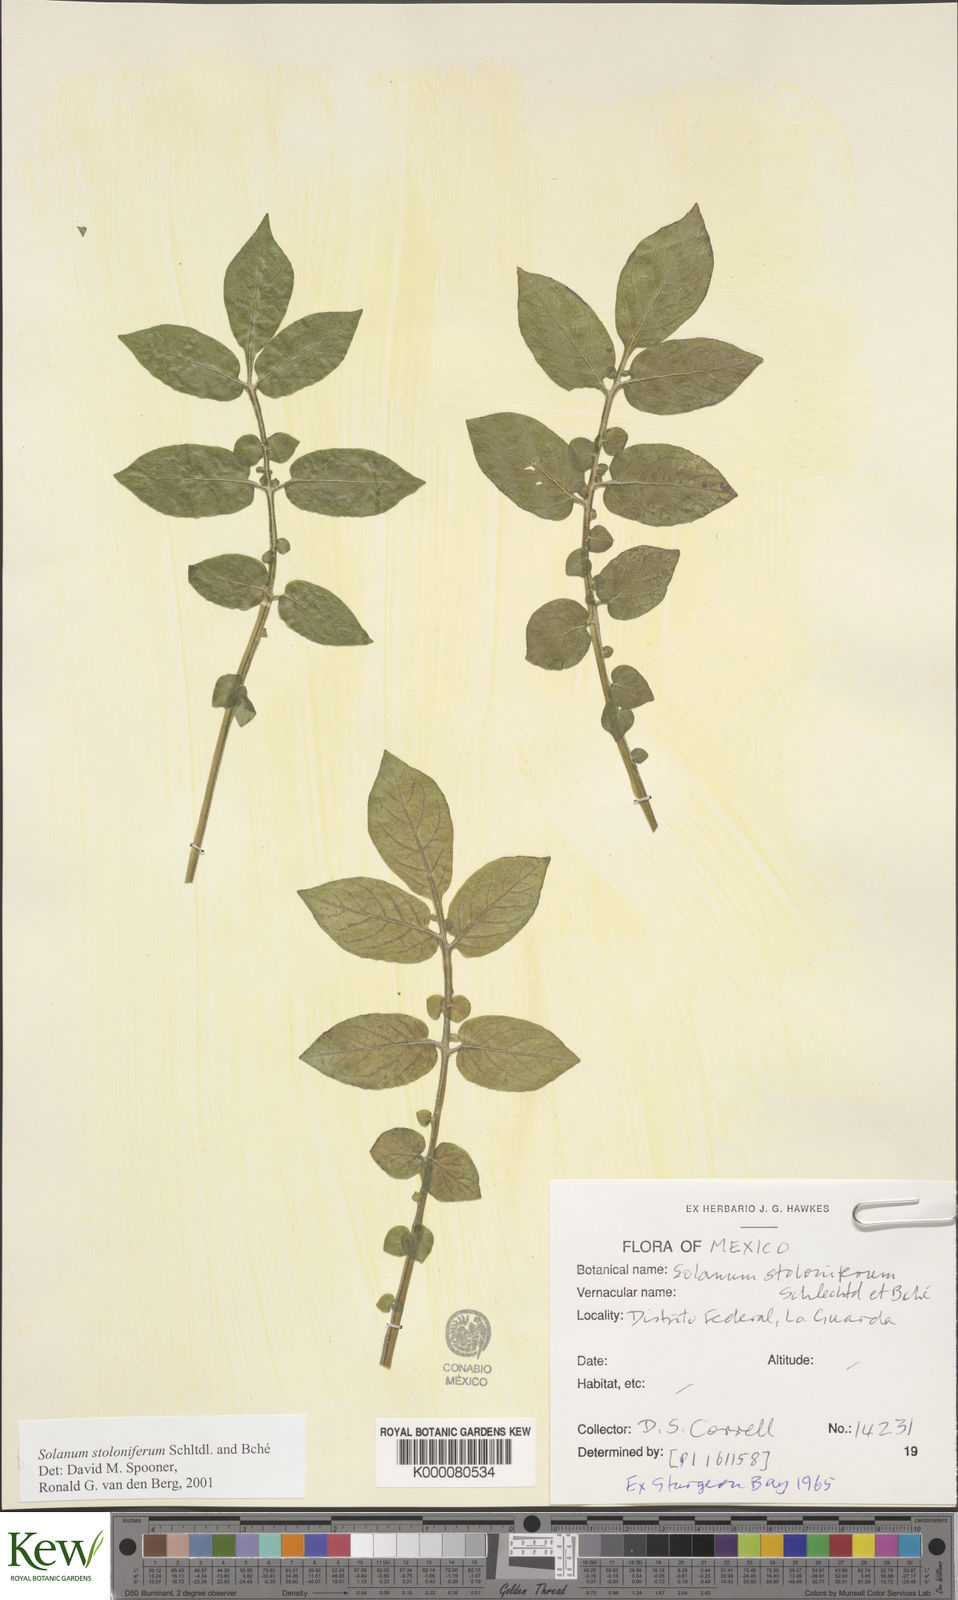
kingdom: Plantae
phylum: Tracheophyta
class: Magnoliopsida
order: Solanales
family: Solanaceae
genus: Solanum
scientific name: Solanum stoloniferum
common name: Fendler's nighshade
